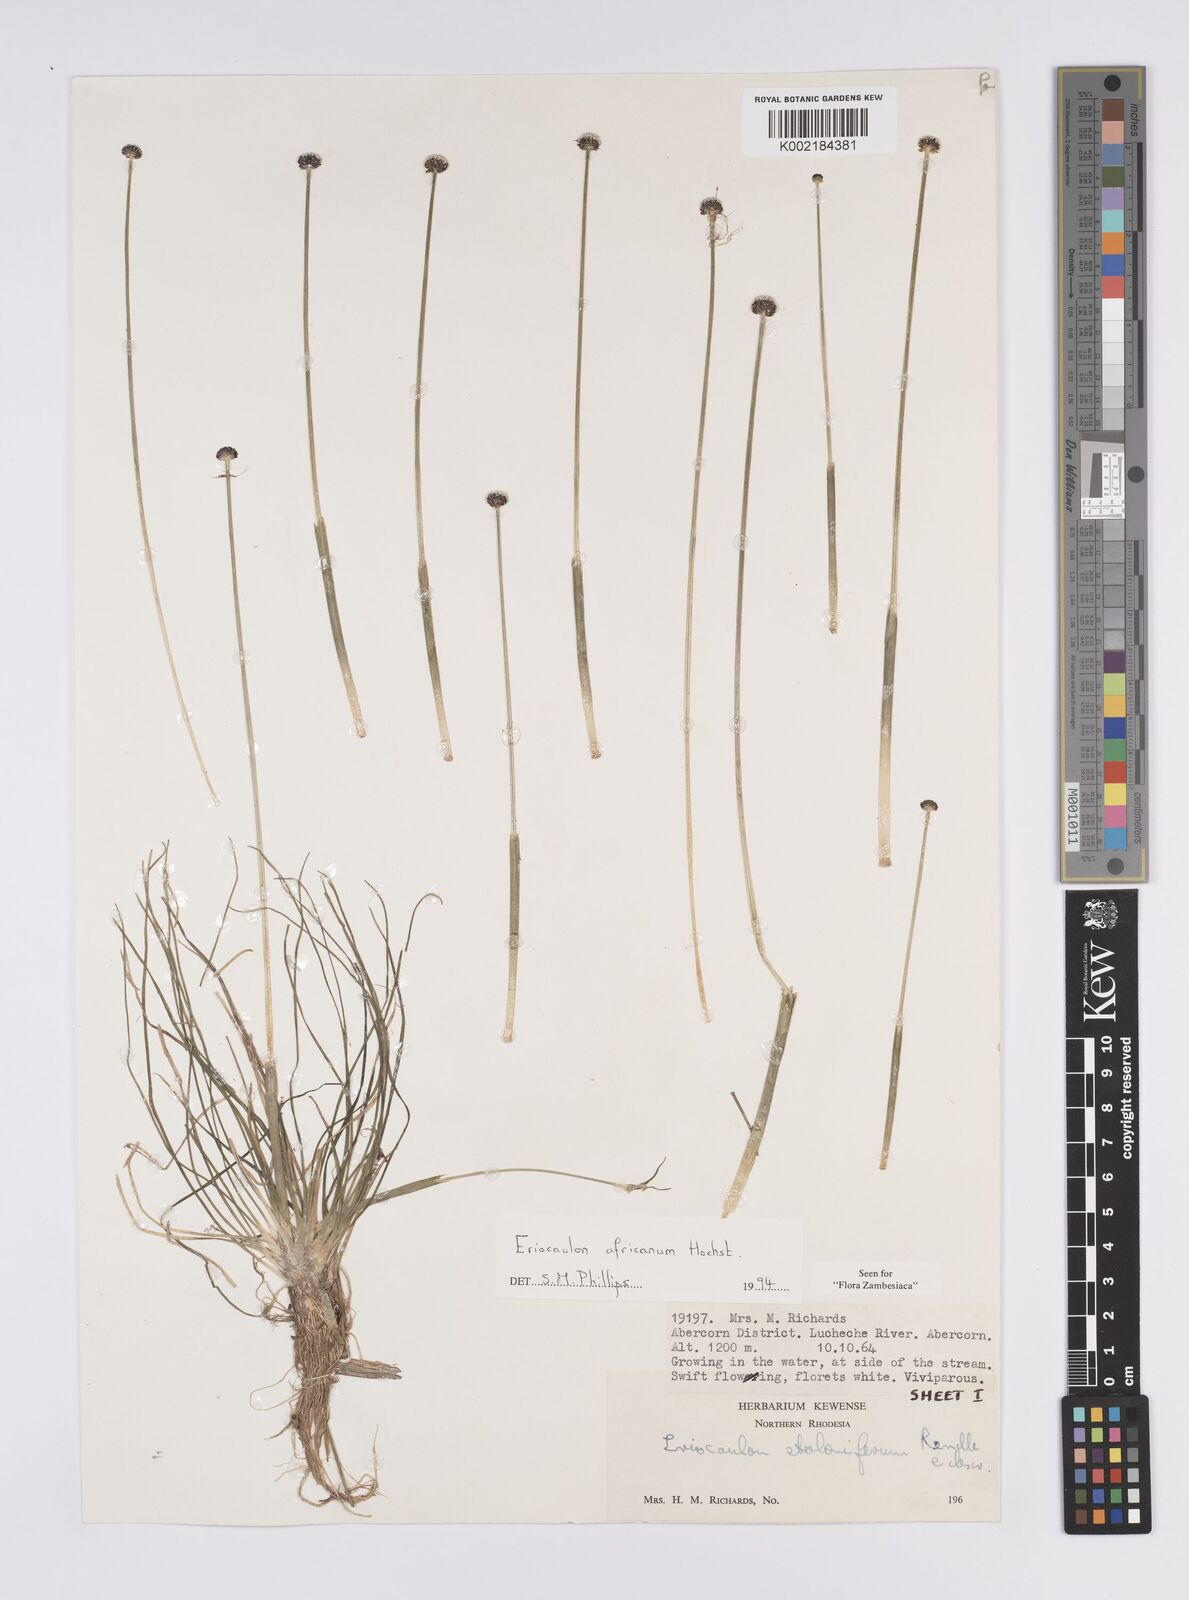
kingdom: Plantae
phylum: Tracheophyta
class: Liliopsida
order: Poales
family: Eriocaulaceae
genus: Eriocaulon
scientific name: Eriocaulon africanum
